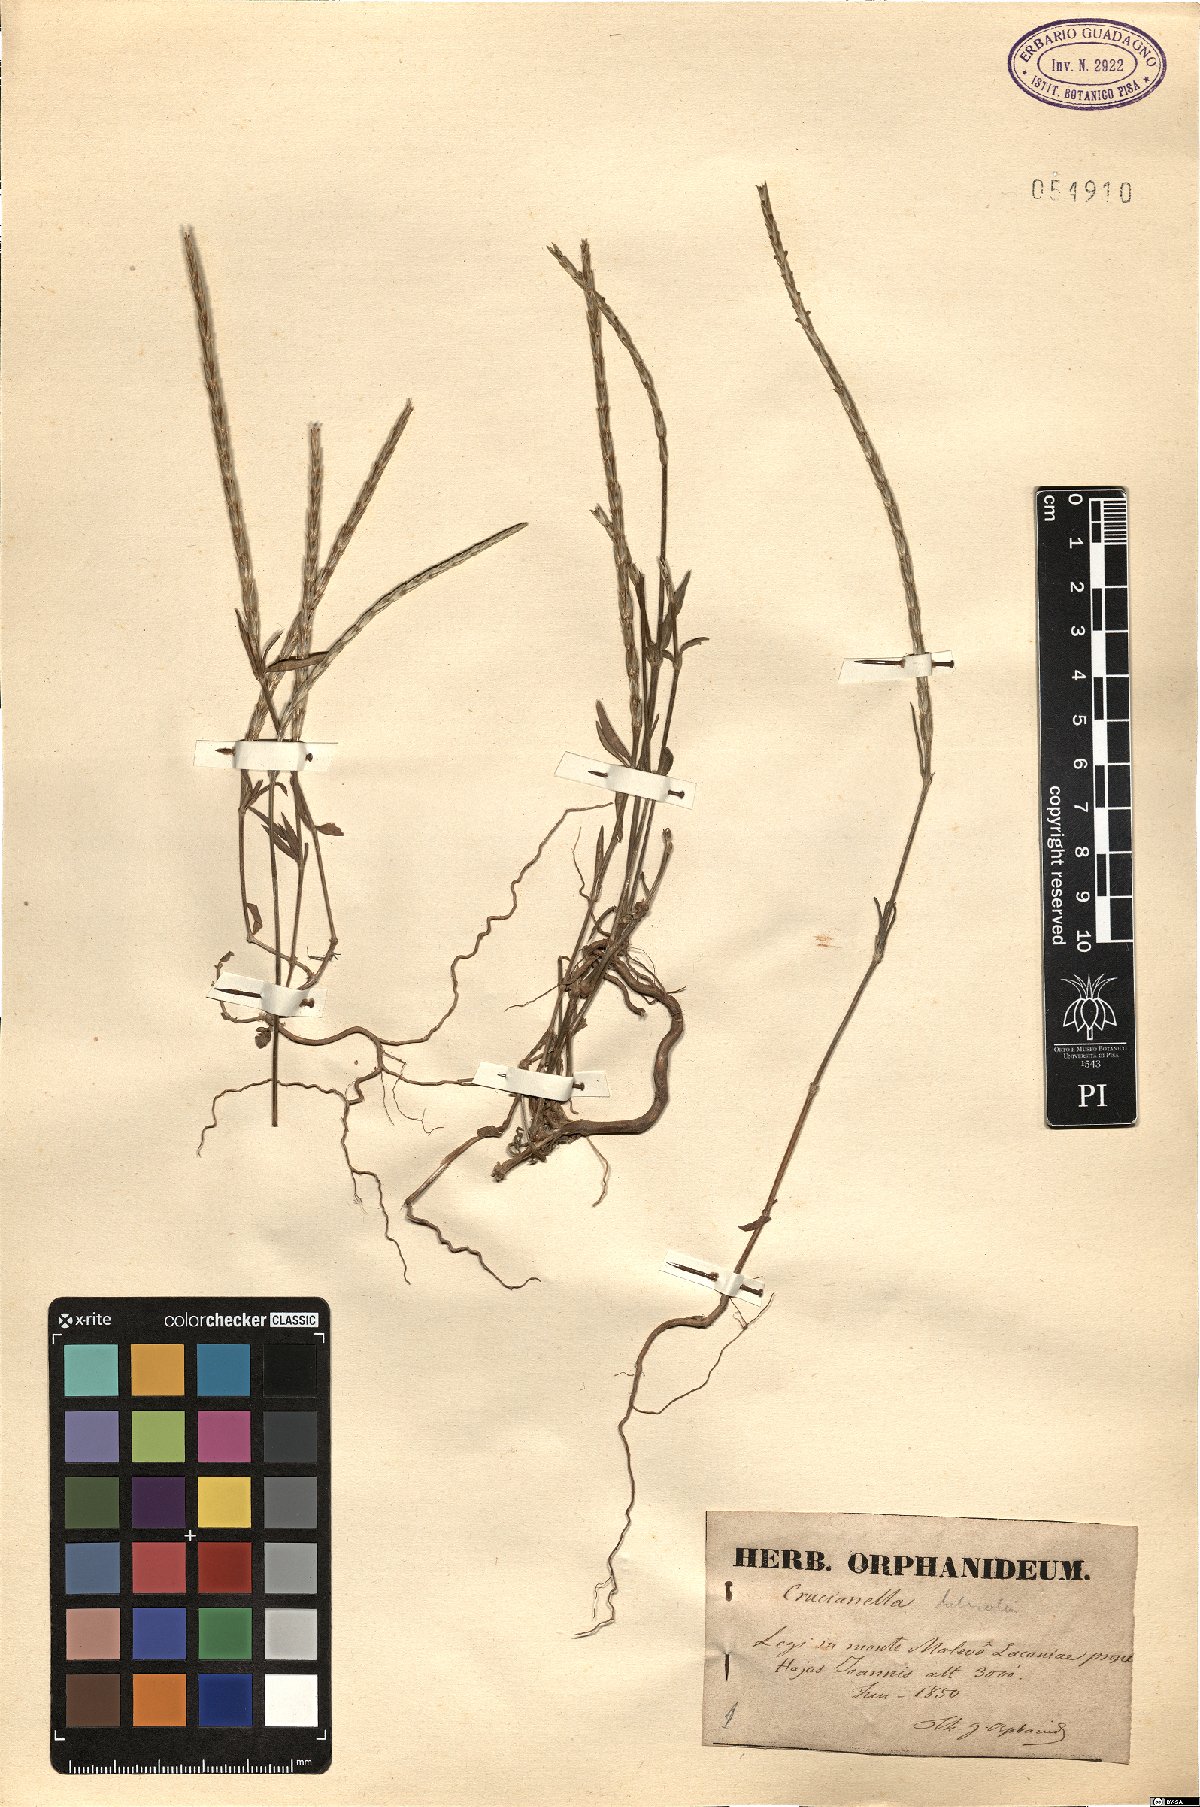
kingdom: Plantae
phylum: Tracheophyta
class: Magnoliopsida
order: Gentianales
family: Rubiaceae
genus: Crucianella
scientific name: Crucianella latifolia
